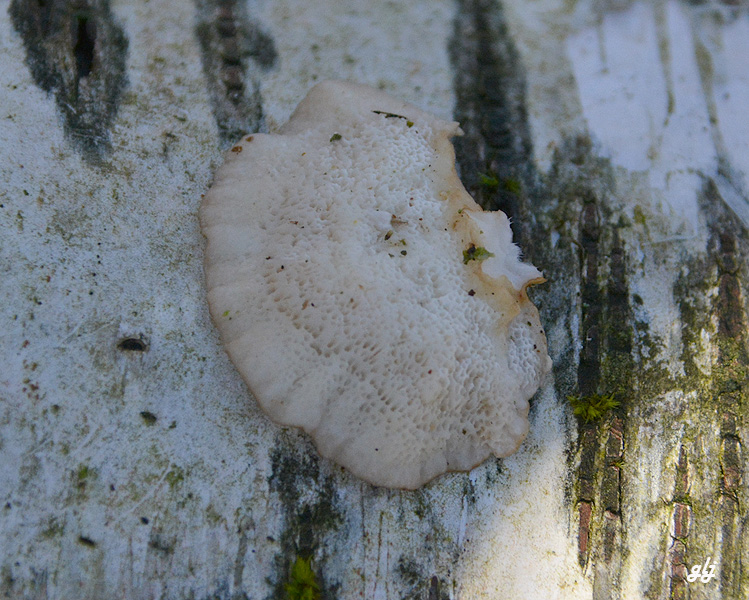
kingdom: Fungi
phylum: Basidiomycota
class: Agaricomycetes
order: Polyporales
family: Polyporaceae
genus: Trametes
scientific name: Trametes ochracea
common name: bæltet læderporesvamp
